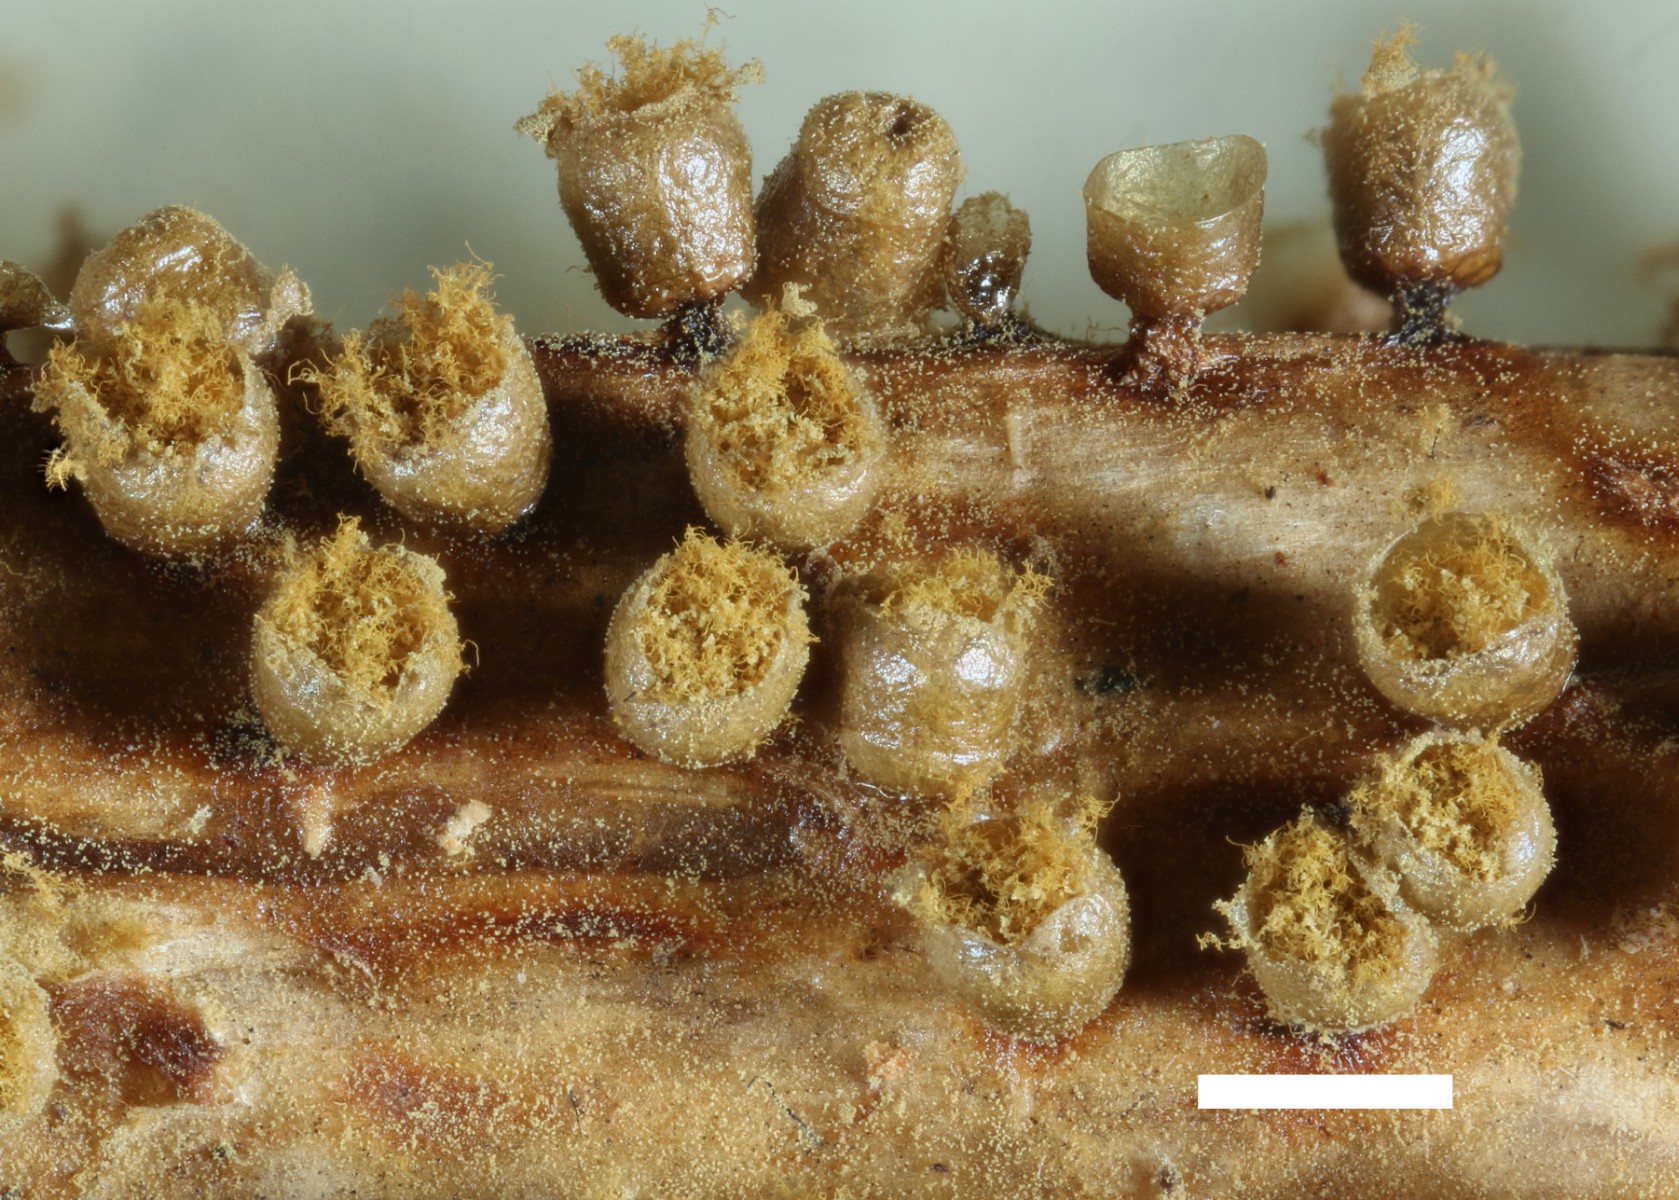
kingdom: Protozoa
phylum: Mycetozoa
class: Myxomycetes
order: Trichiales
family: Trichiaceae
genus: Trichia
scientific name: Trichia varia
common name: foranderlig hårbold
